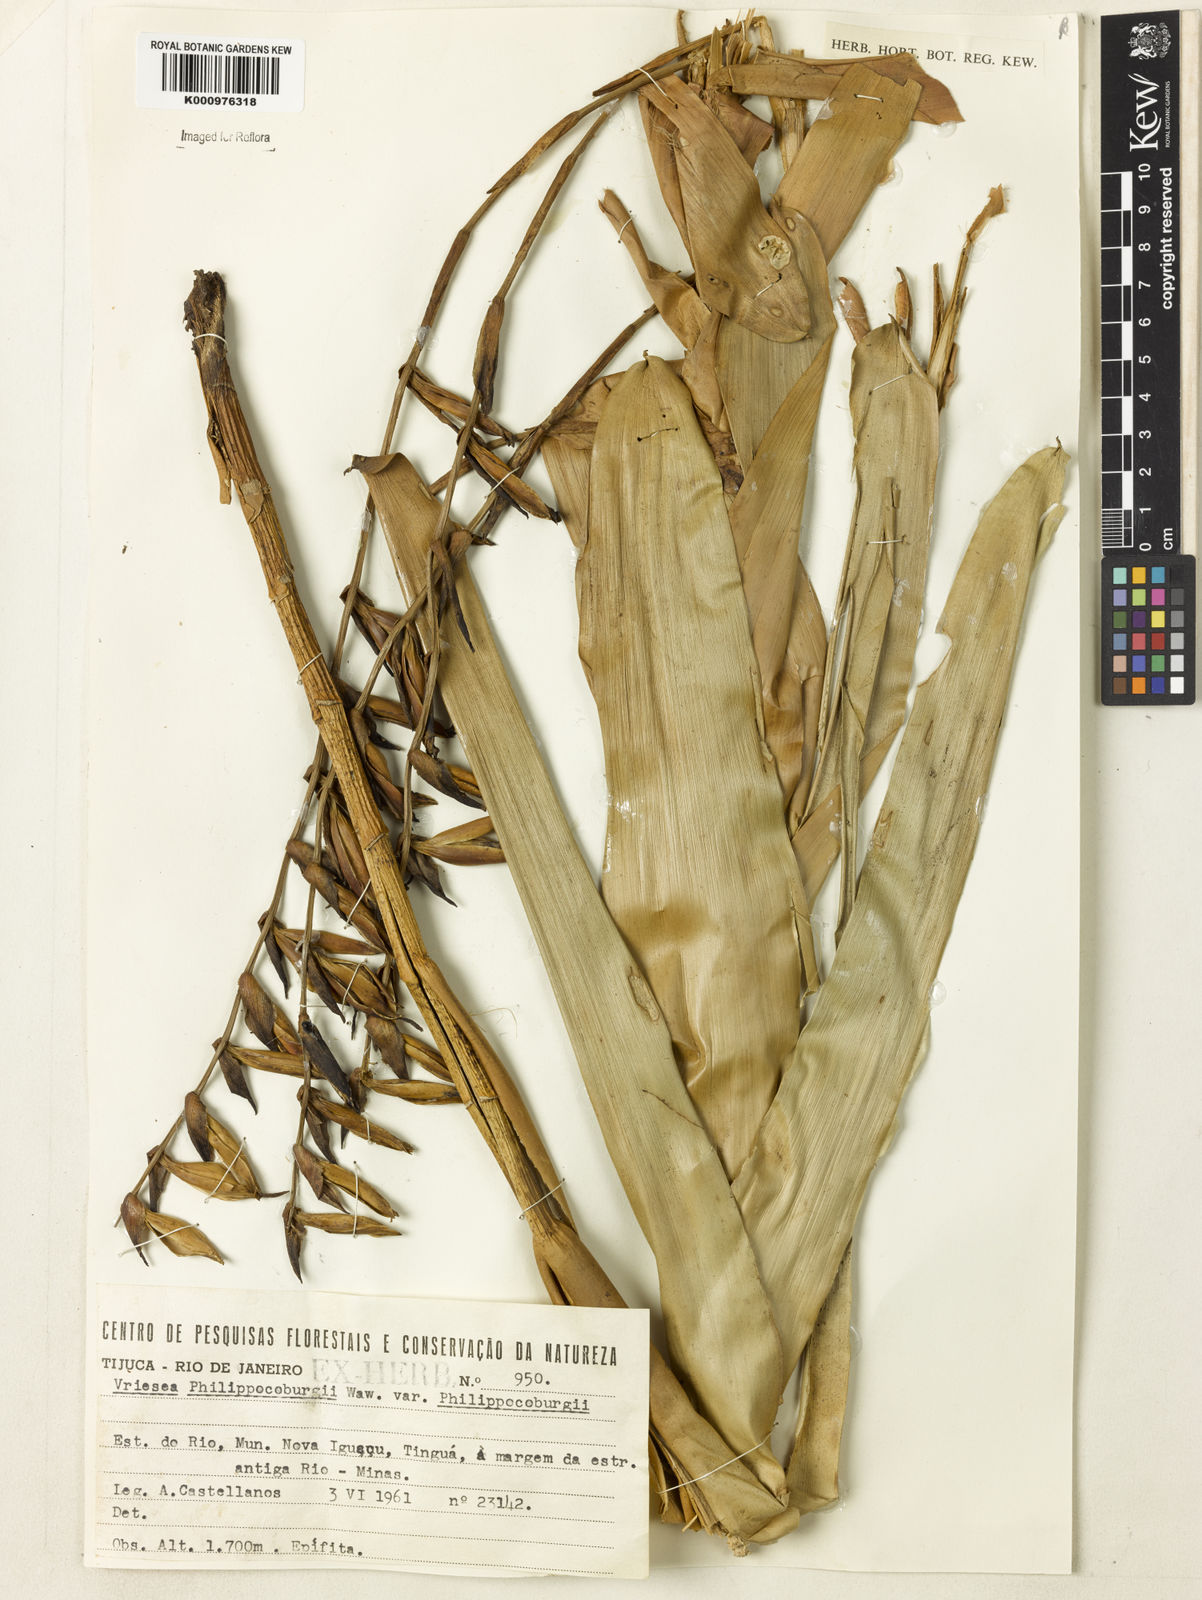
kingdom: Plantae
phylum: Tracheophyta
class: Liliopsida
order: Poales
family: Bromeliaceae
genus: Vriesea
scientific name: Vriesea philippocoburgi
